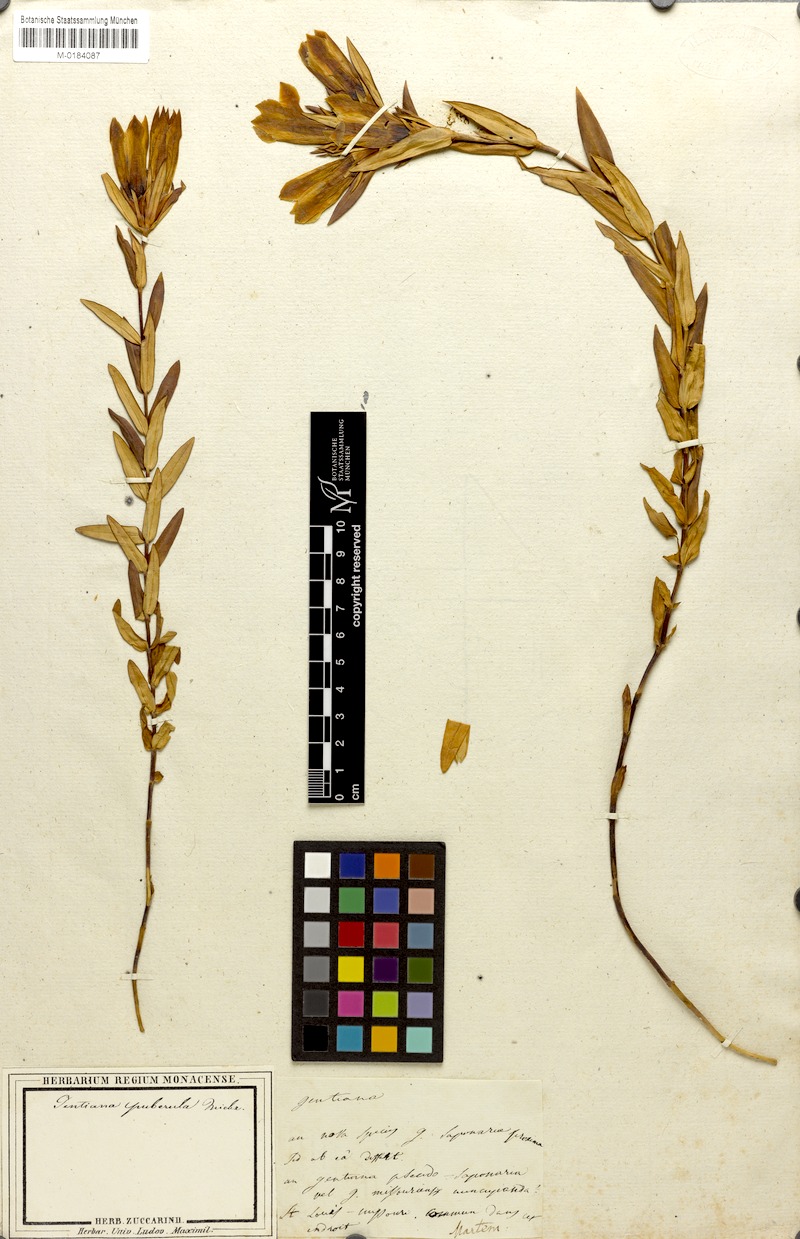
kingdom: Plantae
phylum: Tracheophyta
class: Magnoliopsida
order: Gentianales
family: Gentianaceae
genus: Gentiana
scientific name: Gentiana saponaria
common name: Soapwort gentian
